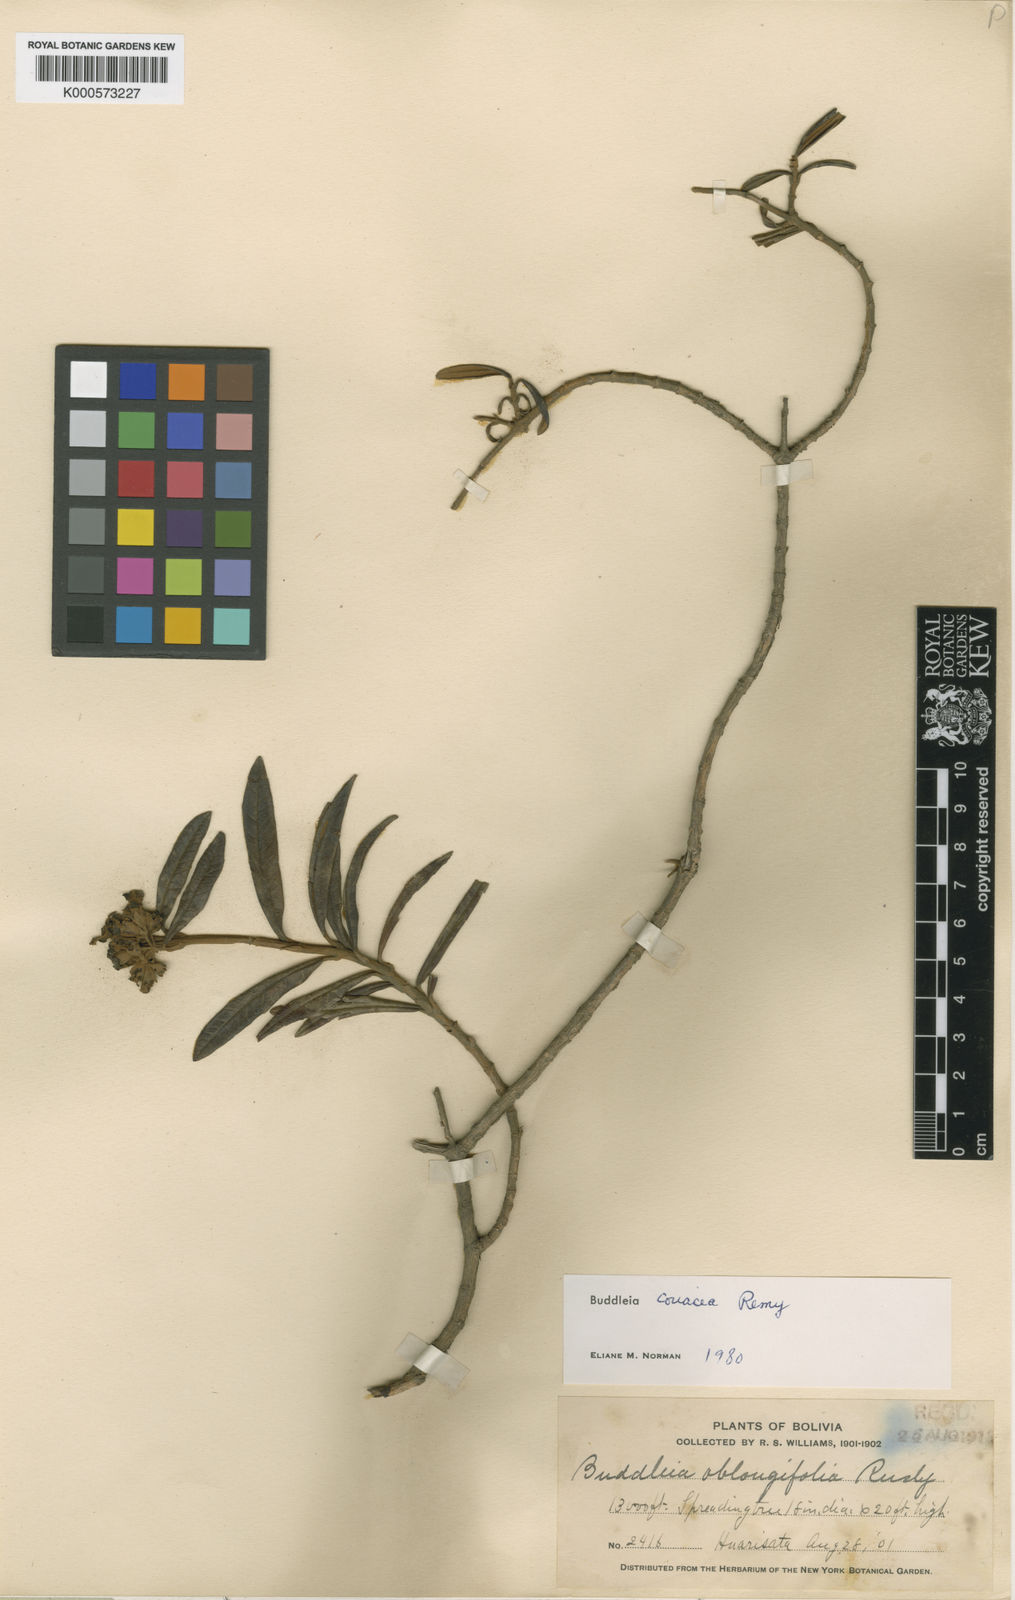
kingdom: Plantae
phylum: Tracheophyta
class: Magnoliopsida
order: Lamiales
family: Scrophulariaceae
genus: Buddleja
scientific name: Buddleja pichinchensis
